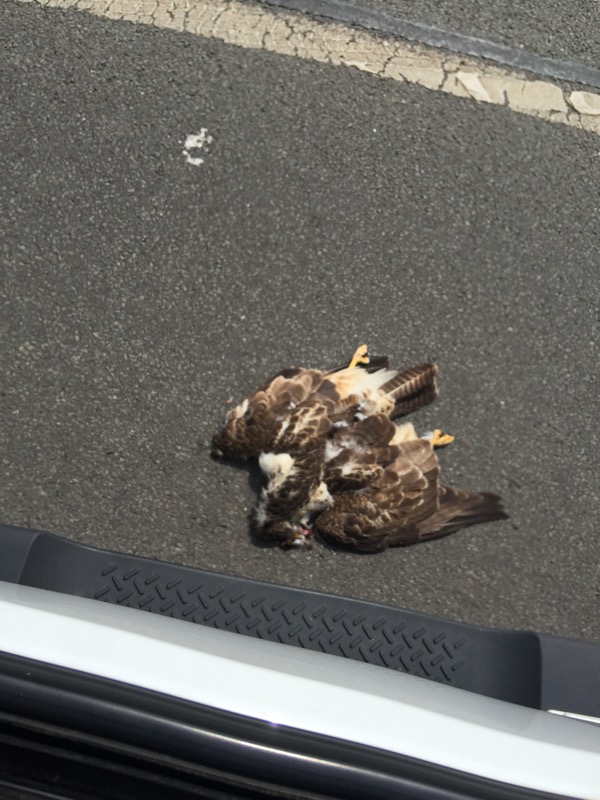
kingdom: Animalia
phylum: Chordata
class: Aves
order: Accipitriformes
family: Accipitridae
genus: Buteo
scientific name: Buteo buteo
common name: Common buzzard
